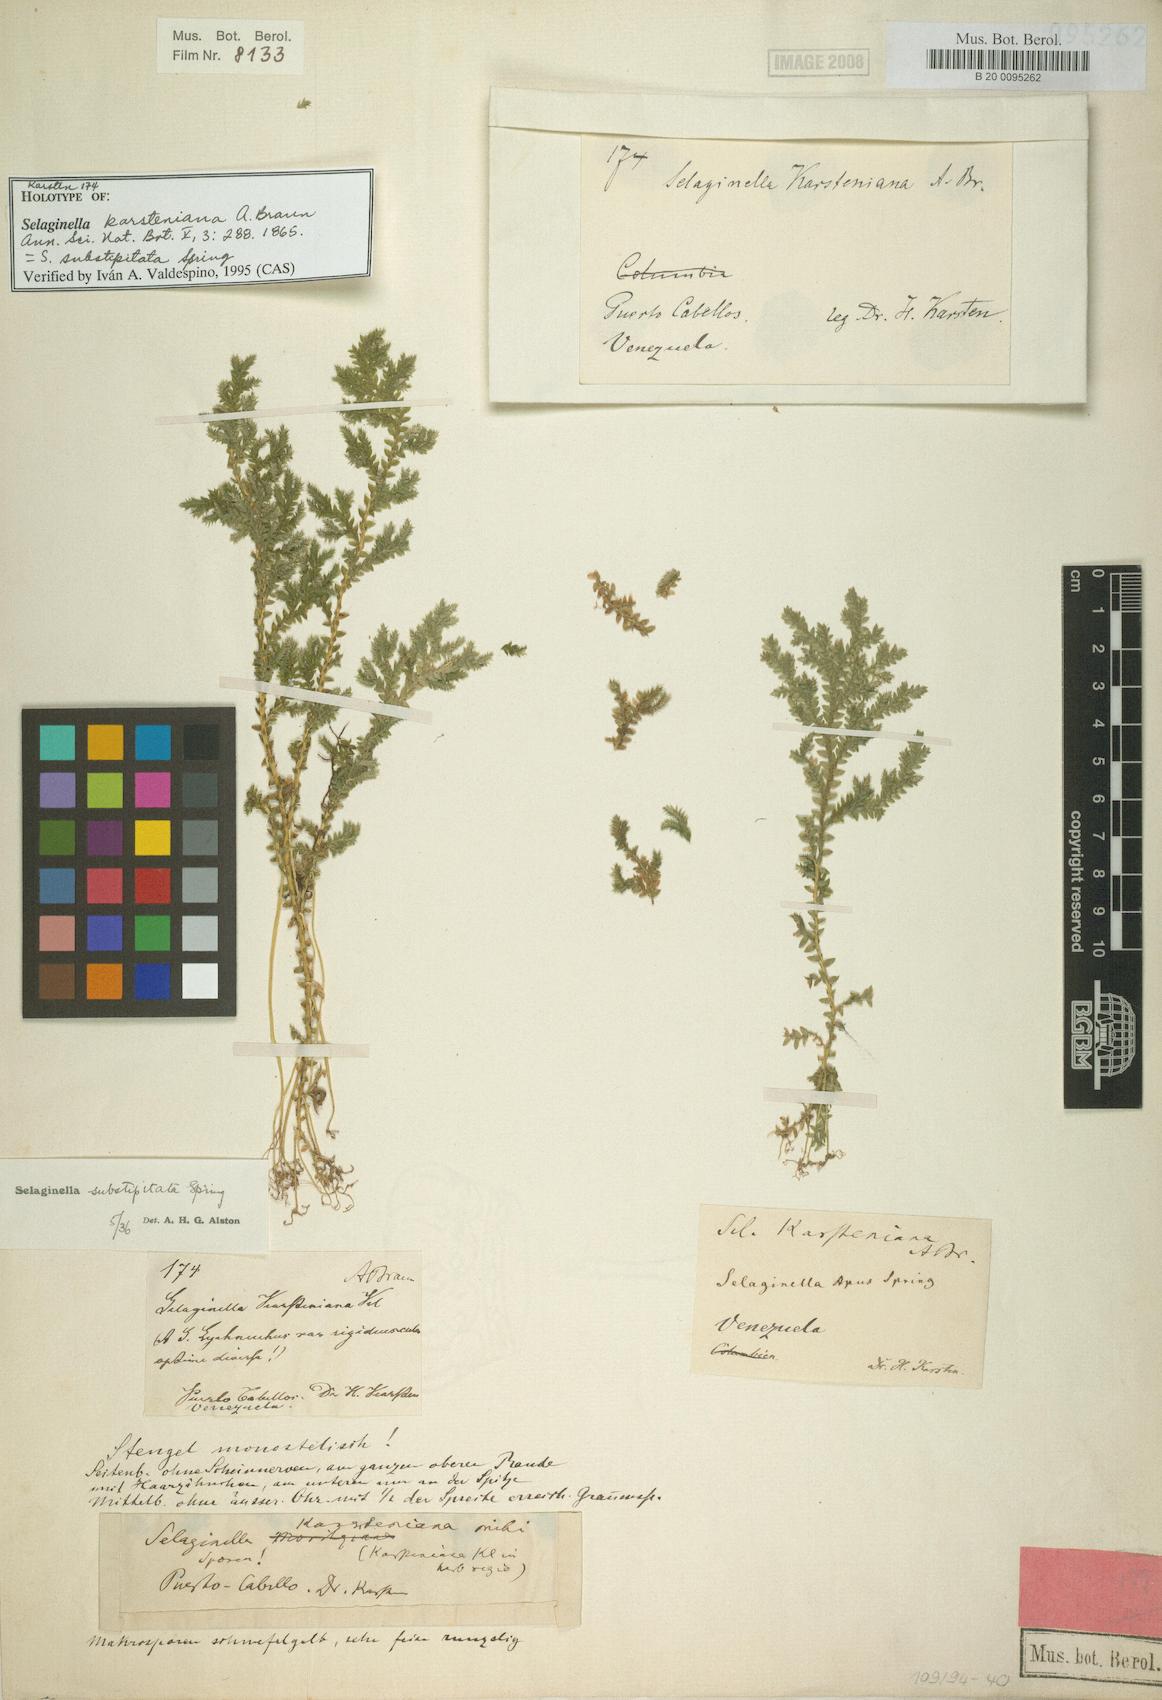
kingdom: Plantae
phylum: Tracheophyta
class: Lycopodiopsida
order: Selaginellales
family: Selaginellaceae
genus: Selaginella
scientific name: Selaginella substipitata
